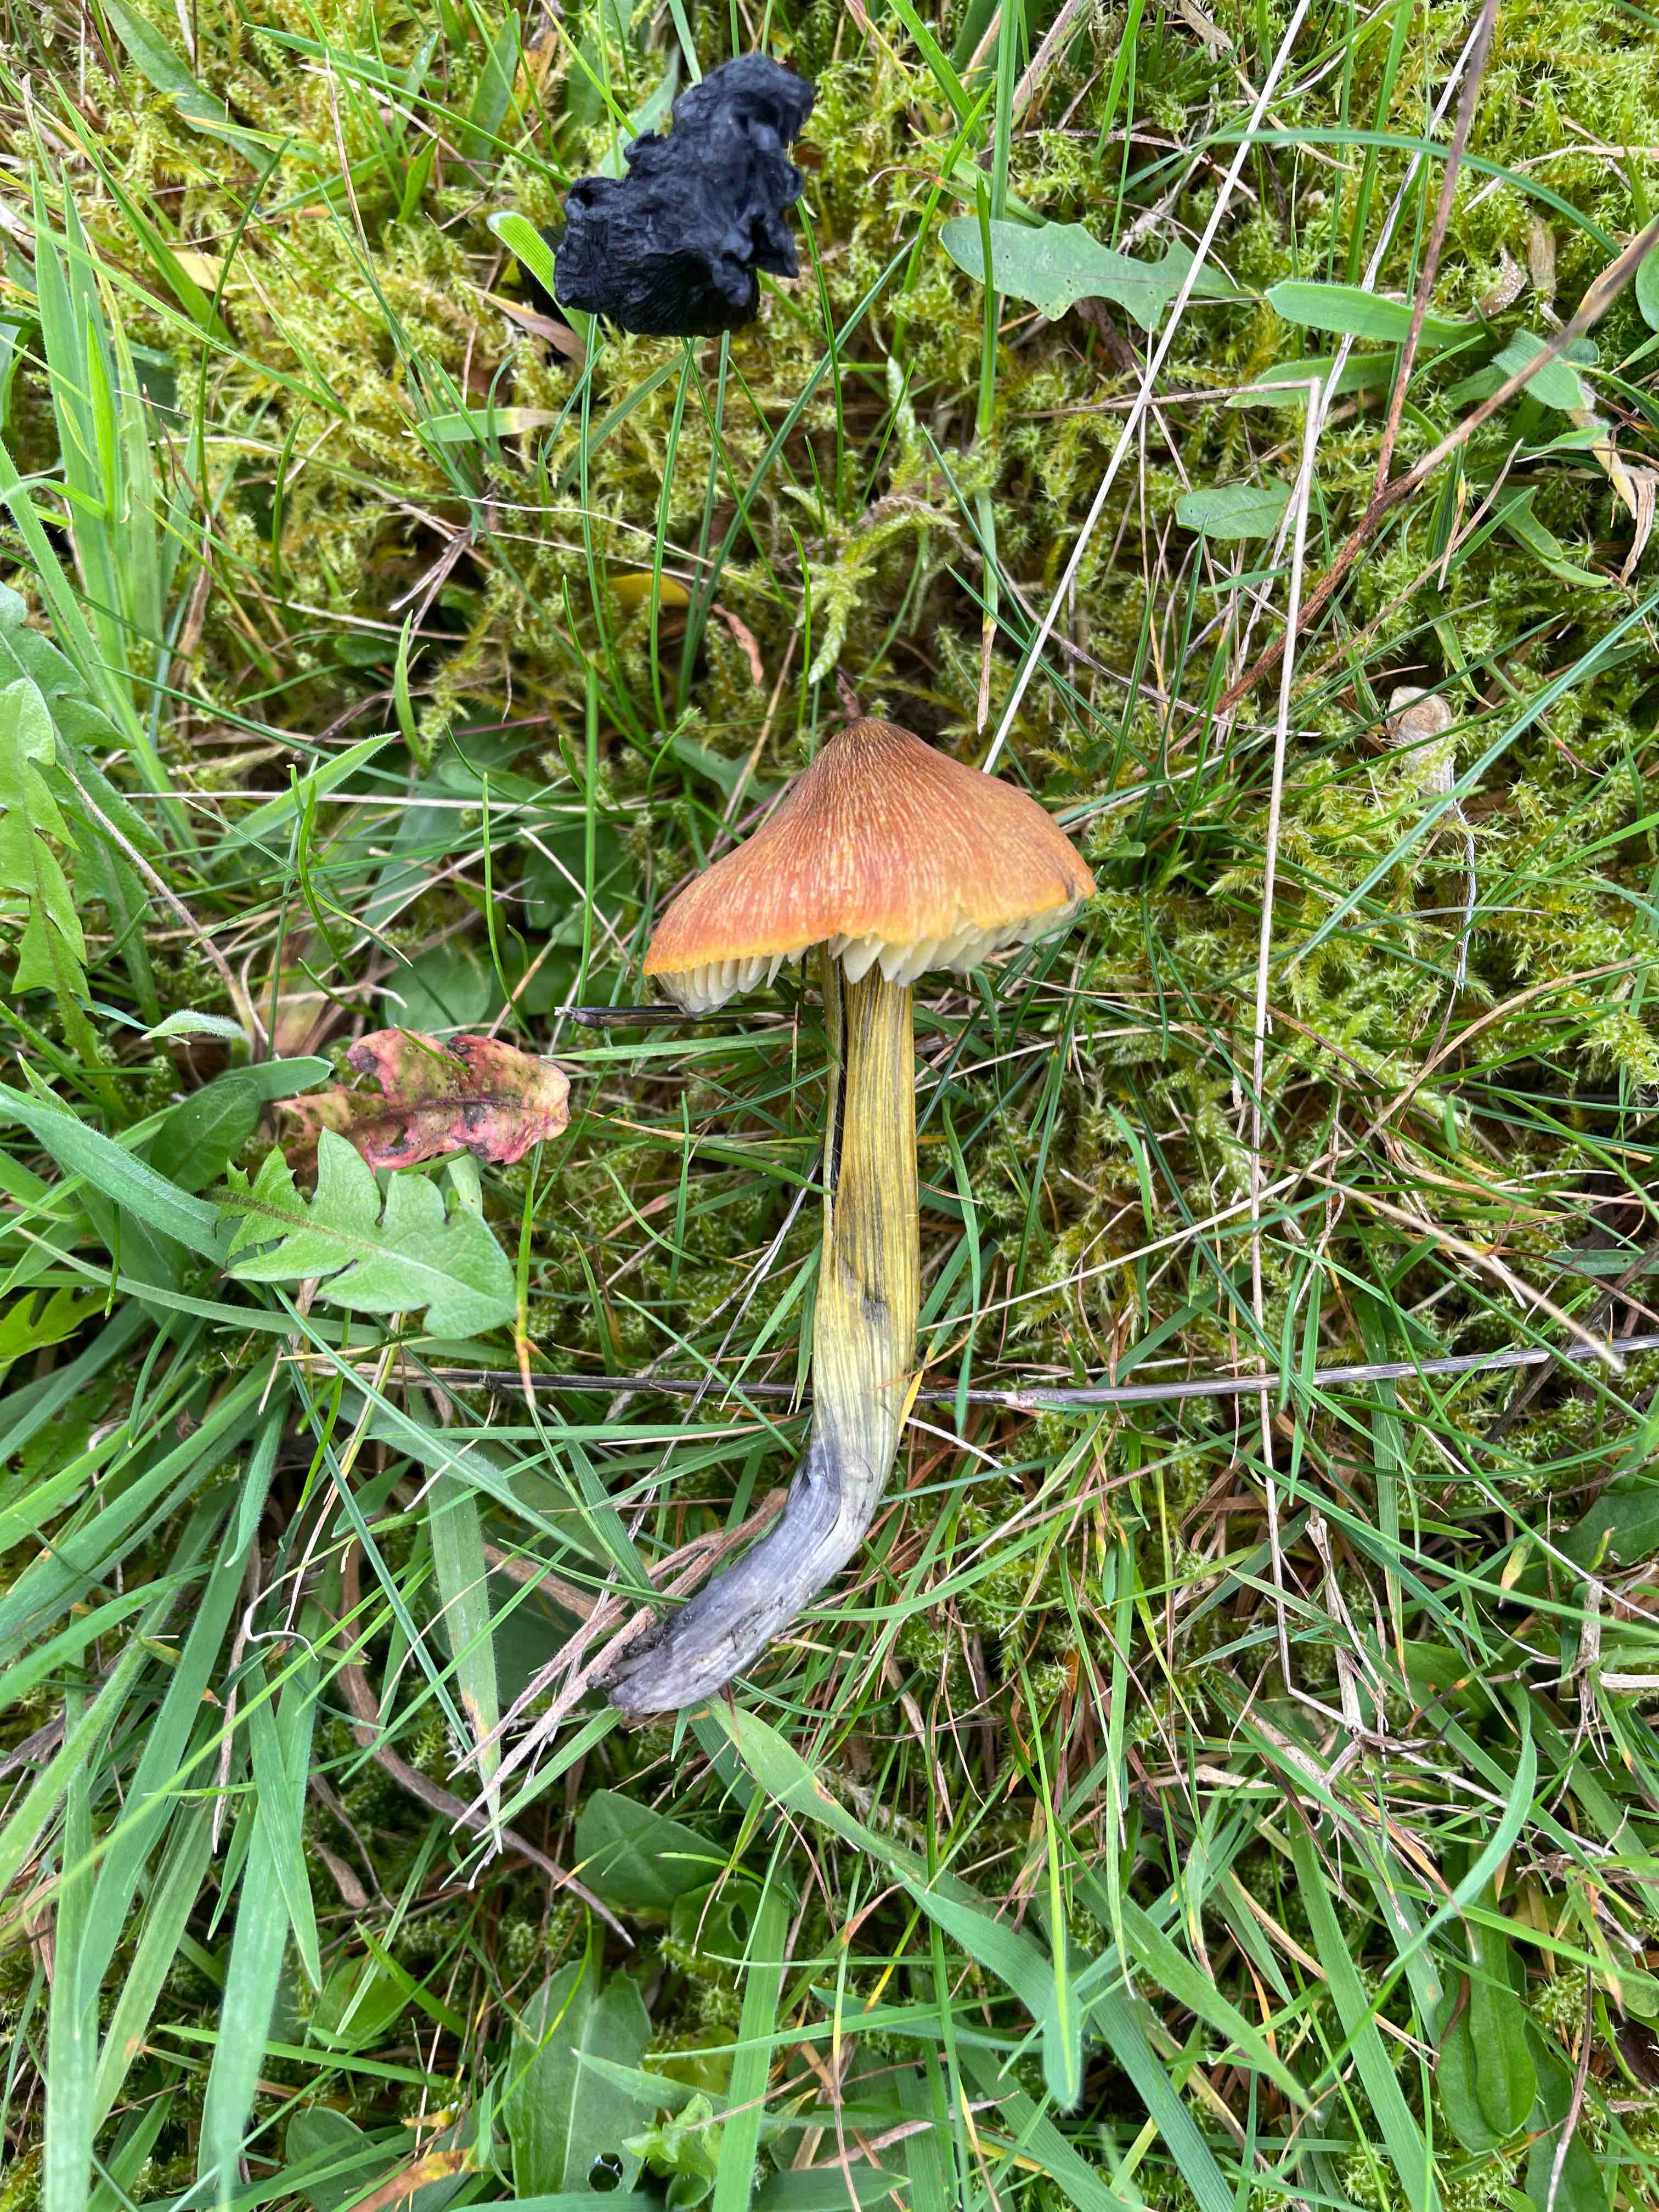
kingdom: Fungi
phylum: Basidiomycota
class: Agaricomycetes
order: Agaricales
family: Hygrophoraceae
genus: Hygrocybe
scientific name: Hygrocybe conica
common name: kegle-vokshat
